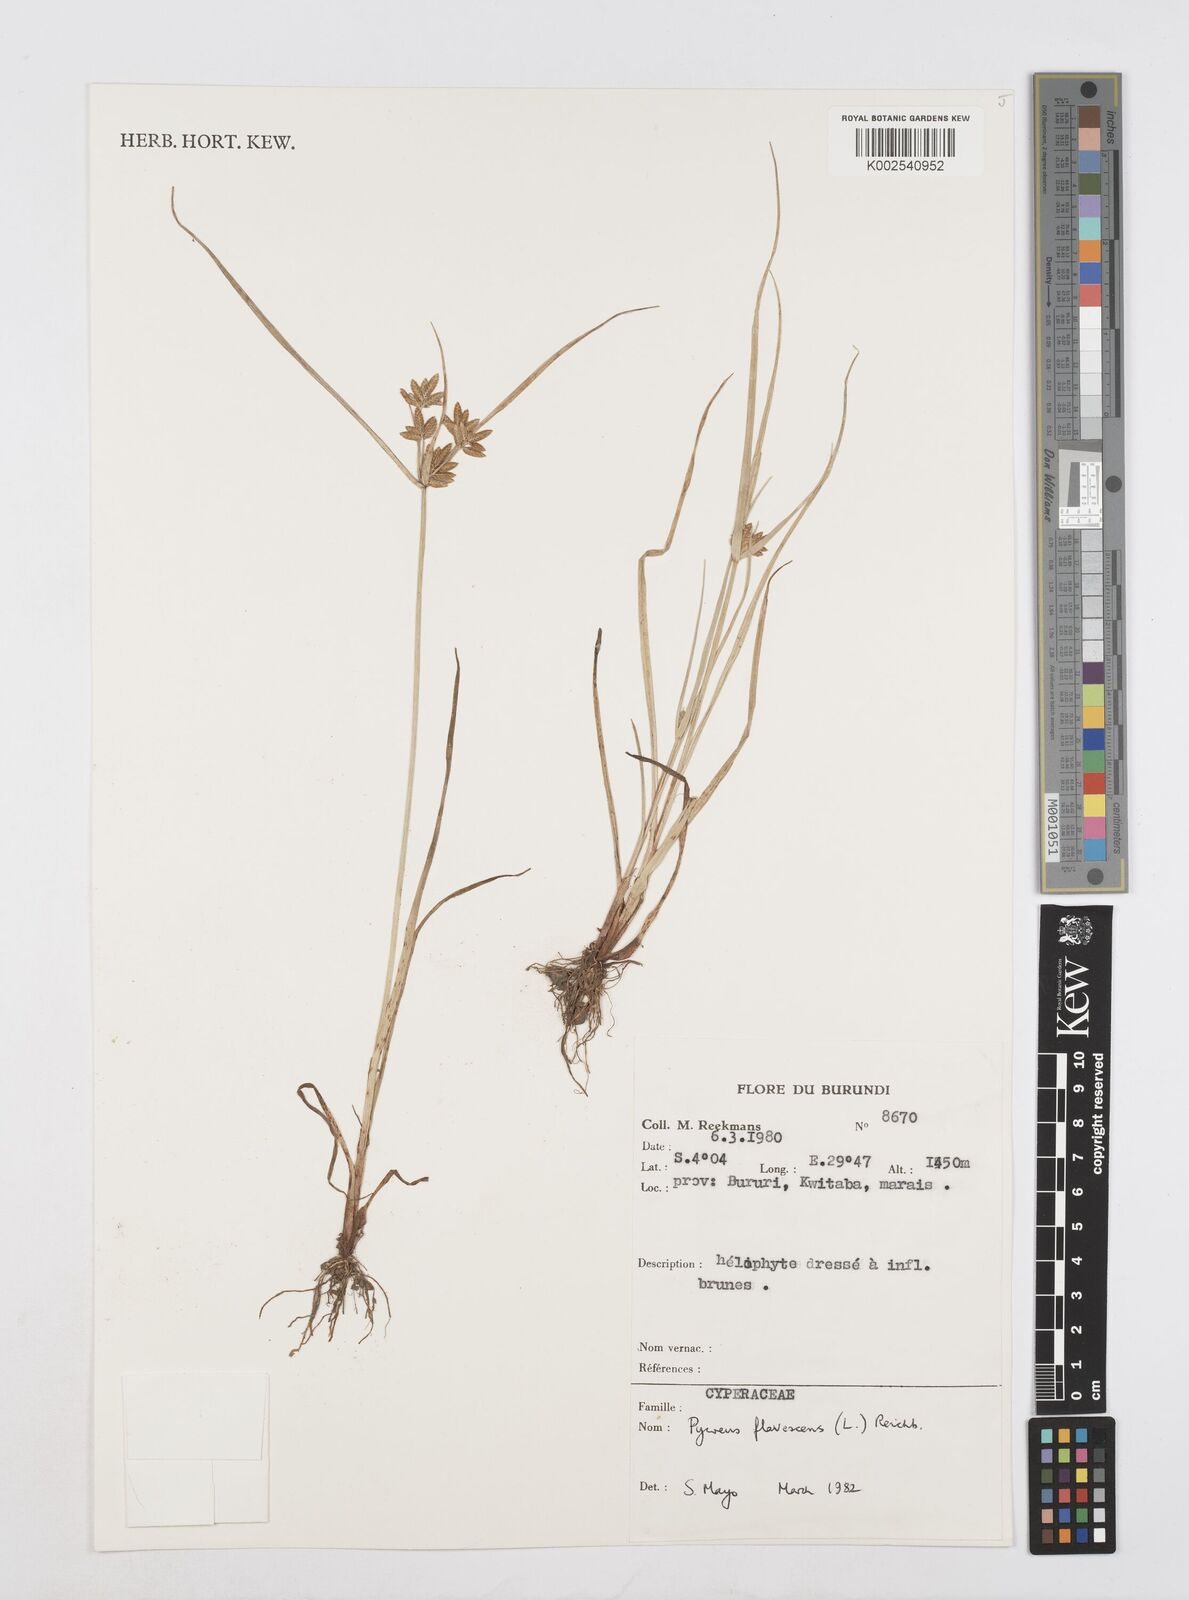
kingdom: Plantae
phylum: Tracheophyta
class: Liliopsida
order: Poales
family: Cyperaceae
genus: Cyperus
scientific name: Cyperus flavescens
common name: Yellow galingale
